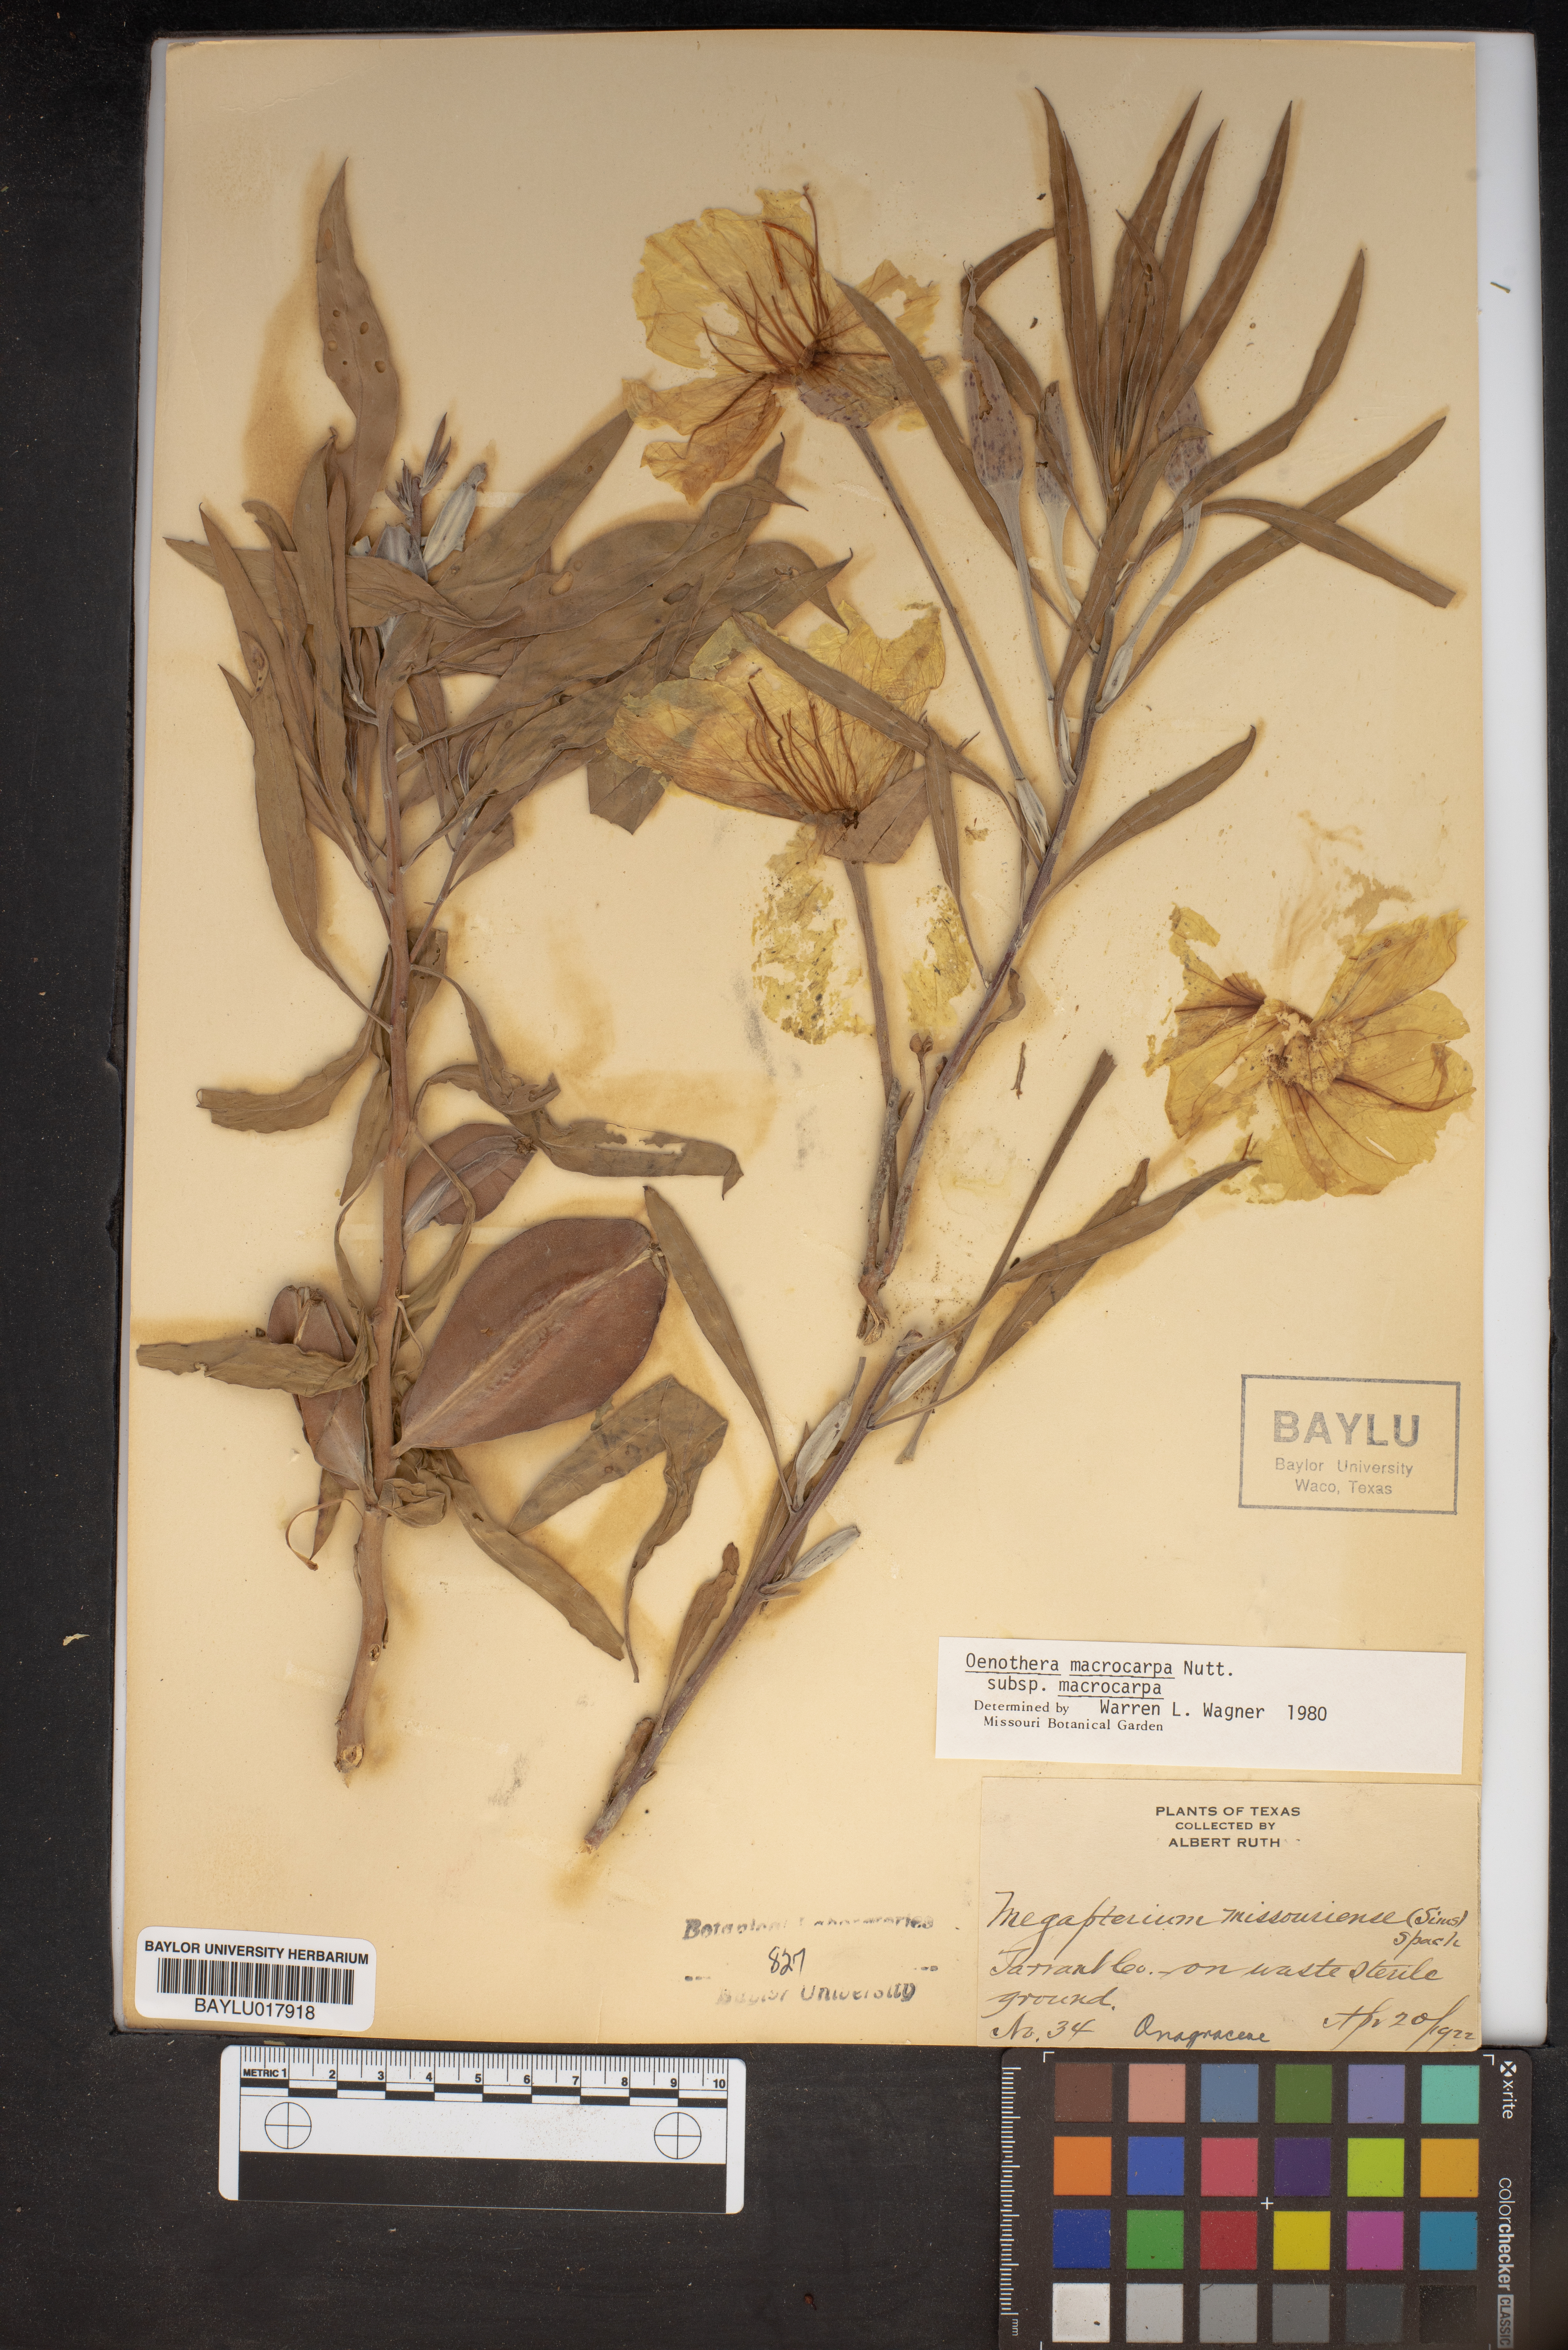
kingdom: Plantae
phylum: Tracheophyta
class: Magnoliopsida
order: Myrtales
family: Onagraceae
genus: Oenothera
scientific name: Oenothera macrocarpa
